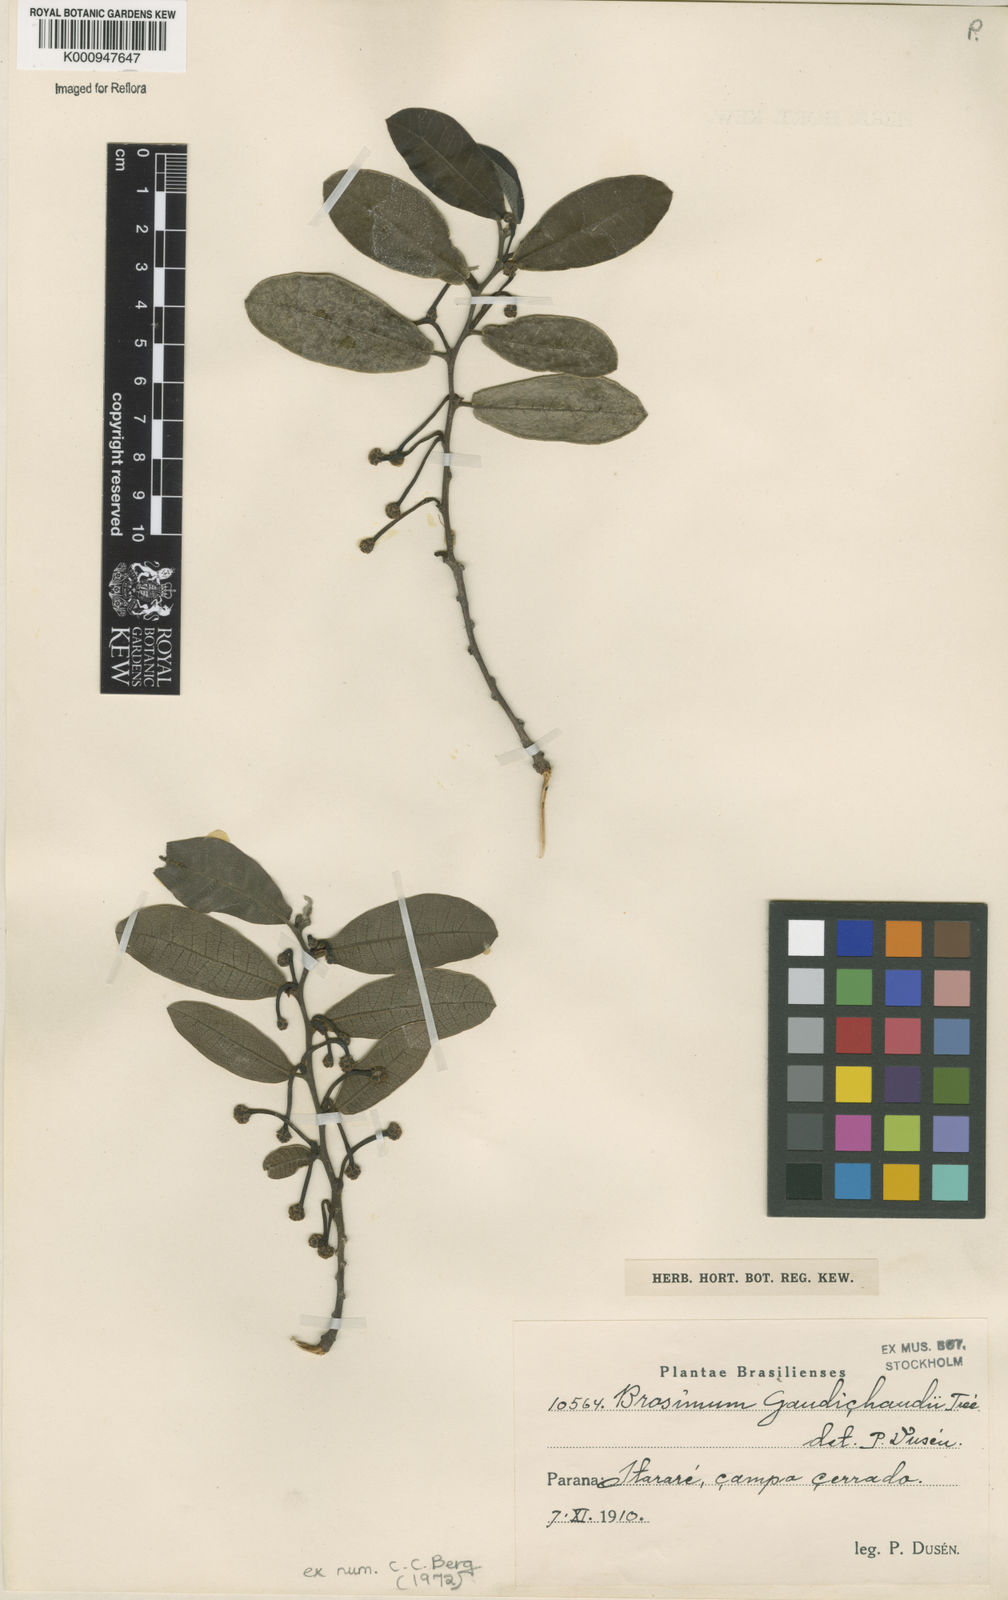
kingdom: Plantae
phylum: Tracheophyta
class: Magnoliopsida
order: Rosales
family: Moraceae
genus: Brosimum
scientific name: Brosimum
